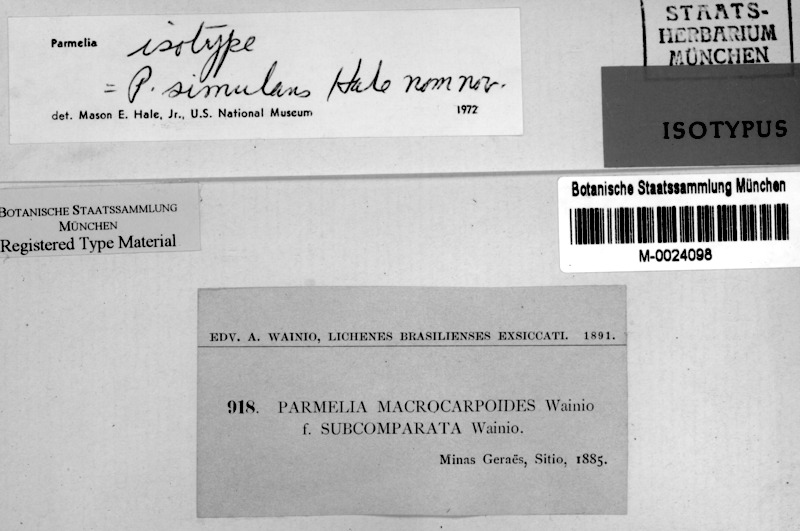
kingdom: Fungi
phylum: Ascomycota
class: Lecanoromycetes
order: Lecanorales
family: Parmeliaceae
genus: Rimelia
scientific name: Rimelia
